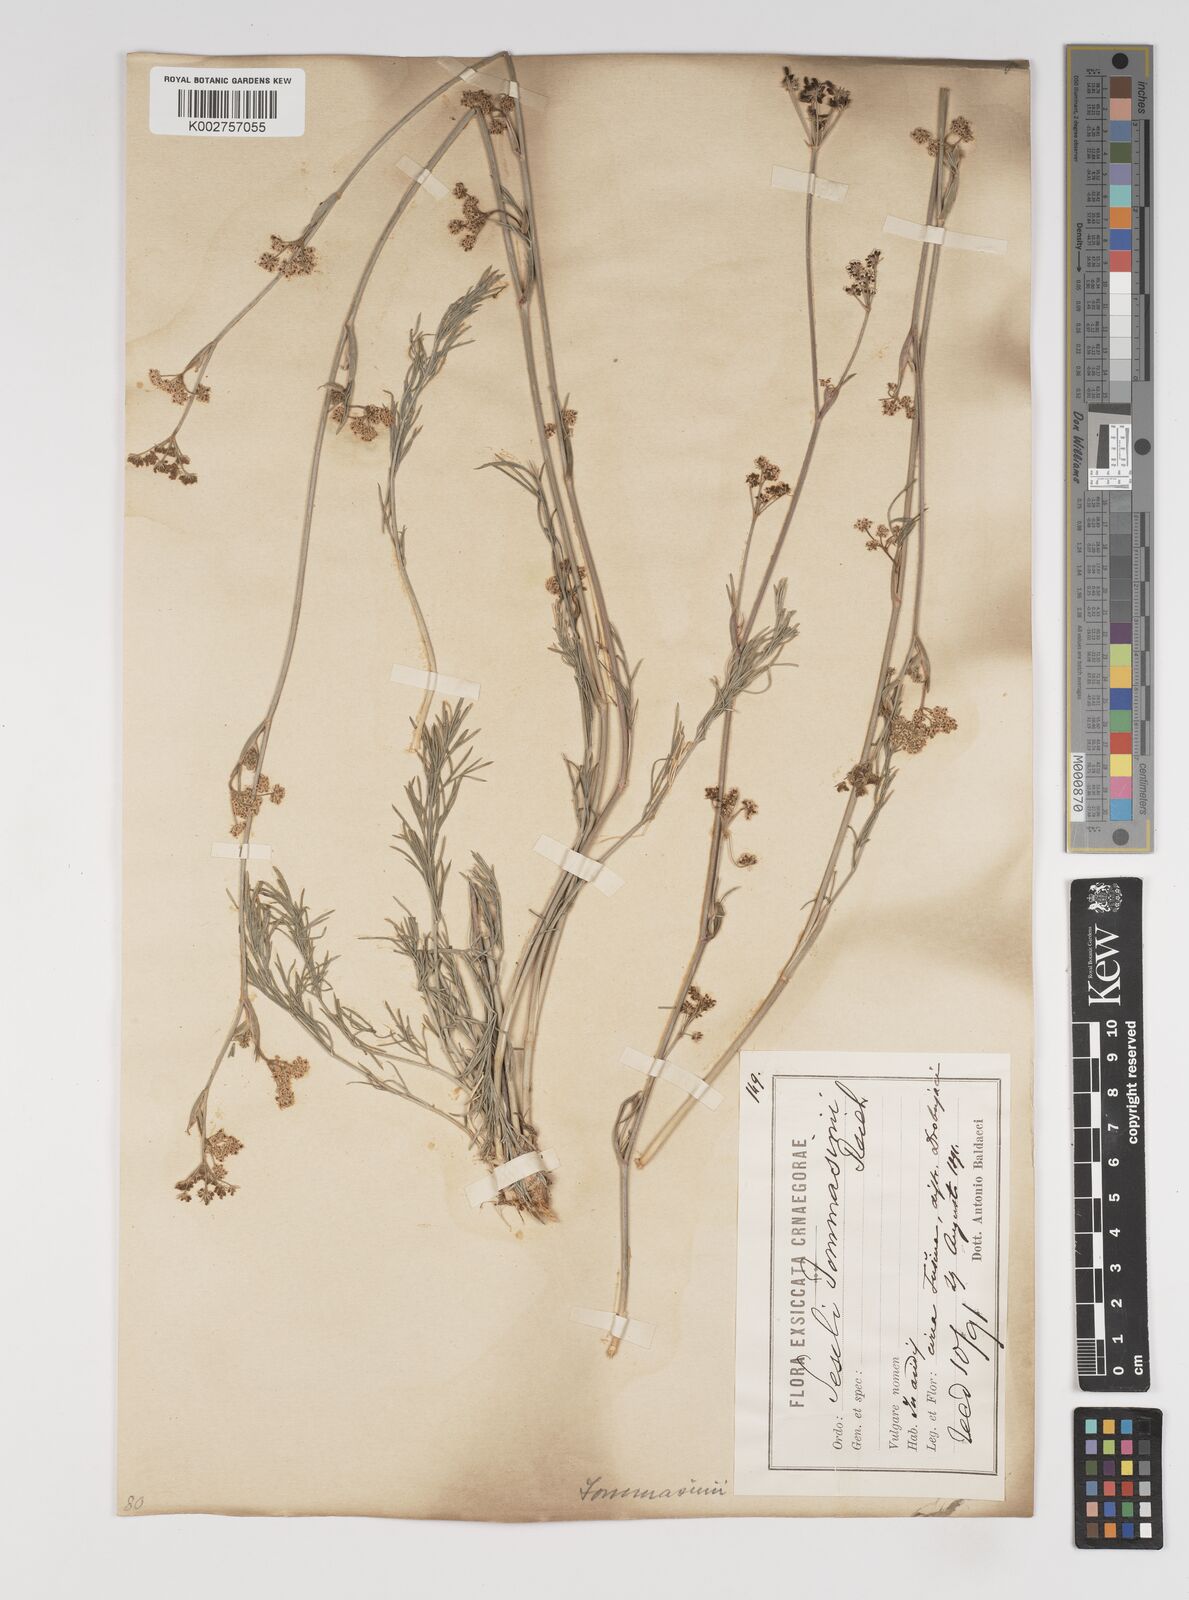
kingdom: Plantae
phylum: Tracheophyta
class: Magnoliopsida
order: Apiales
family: Apiaceae
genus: Seseli
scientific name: Seseli montanum
